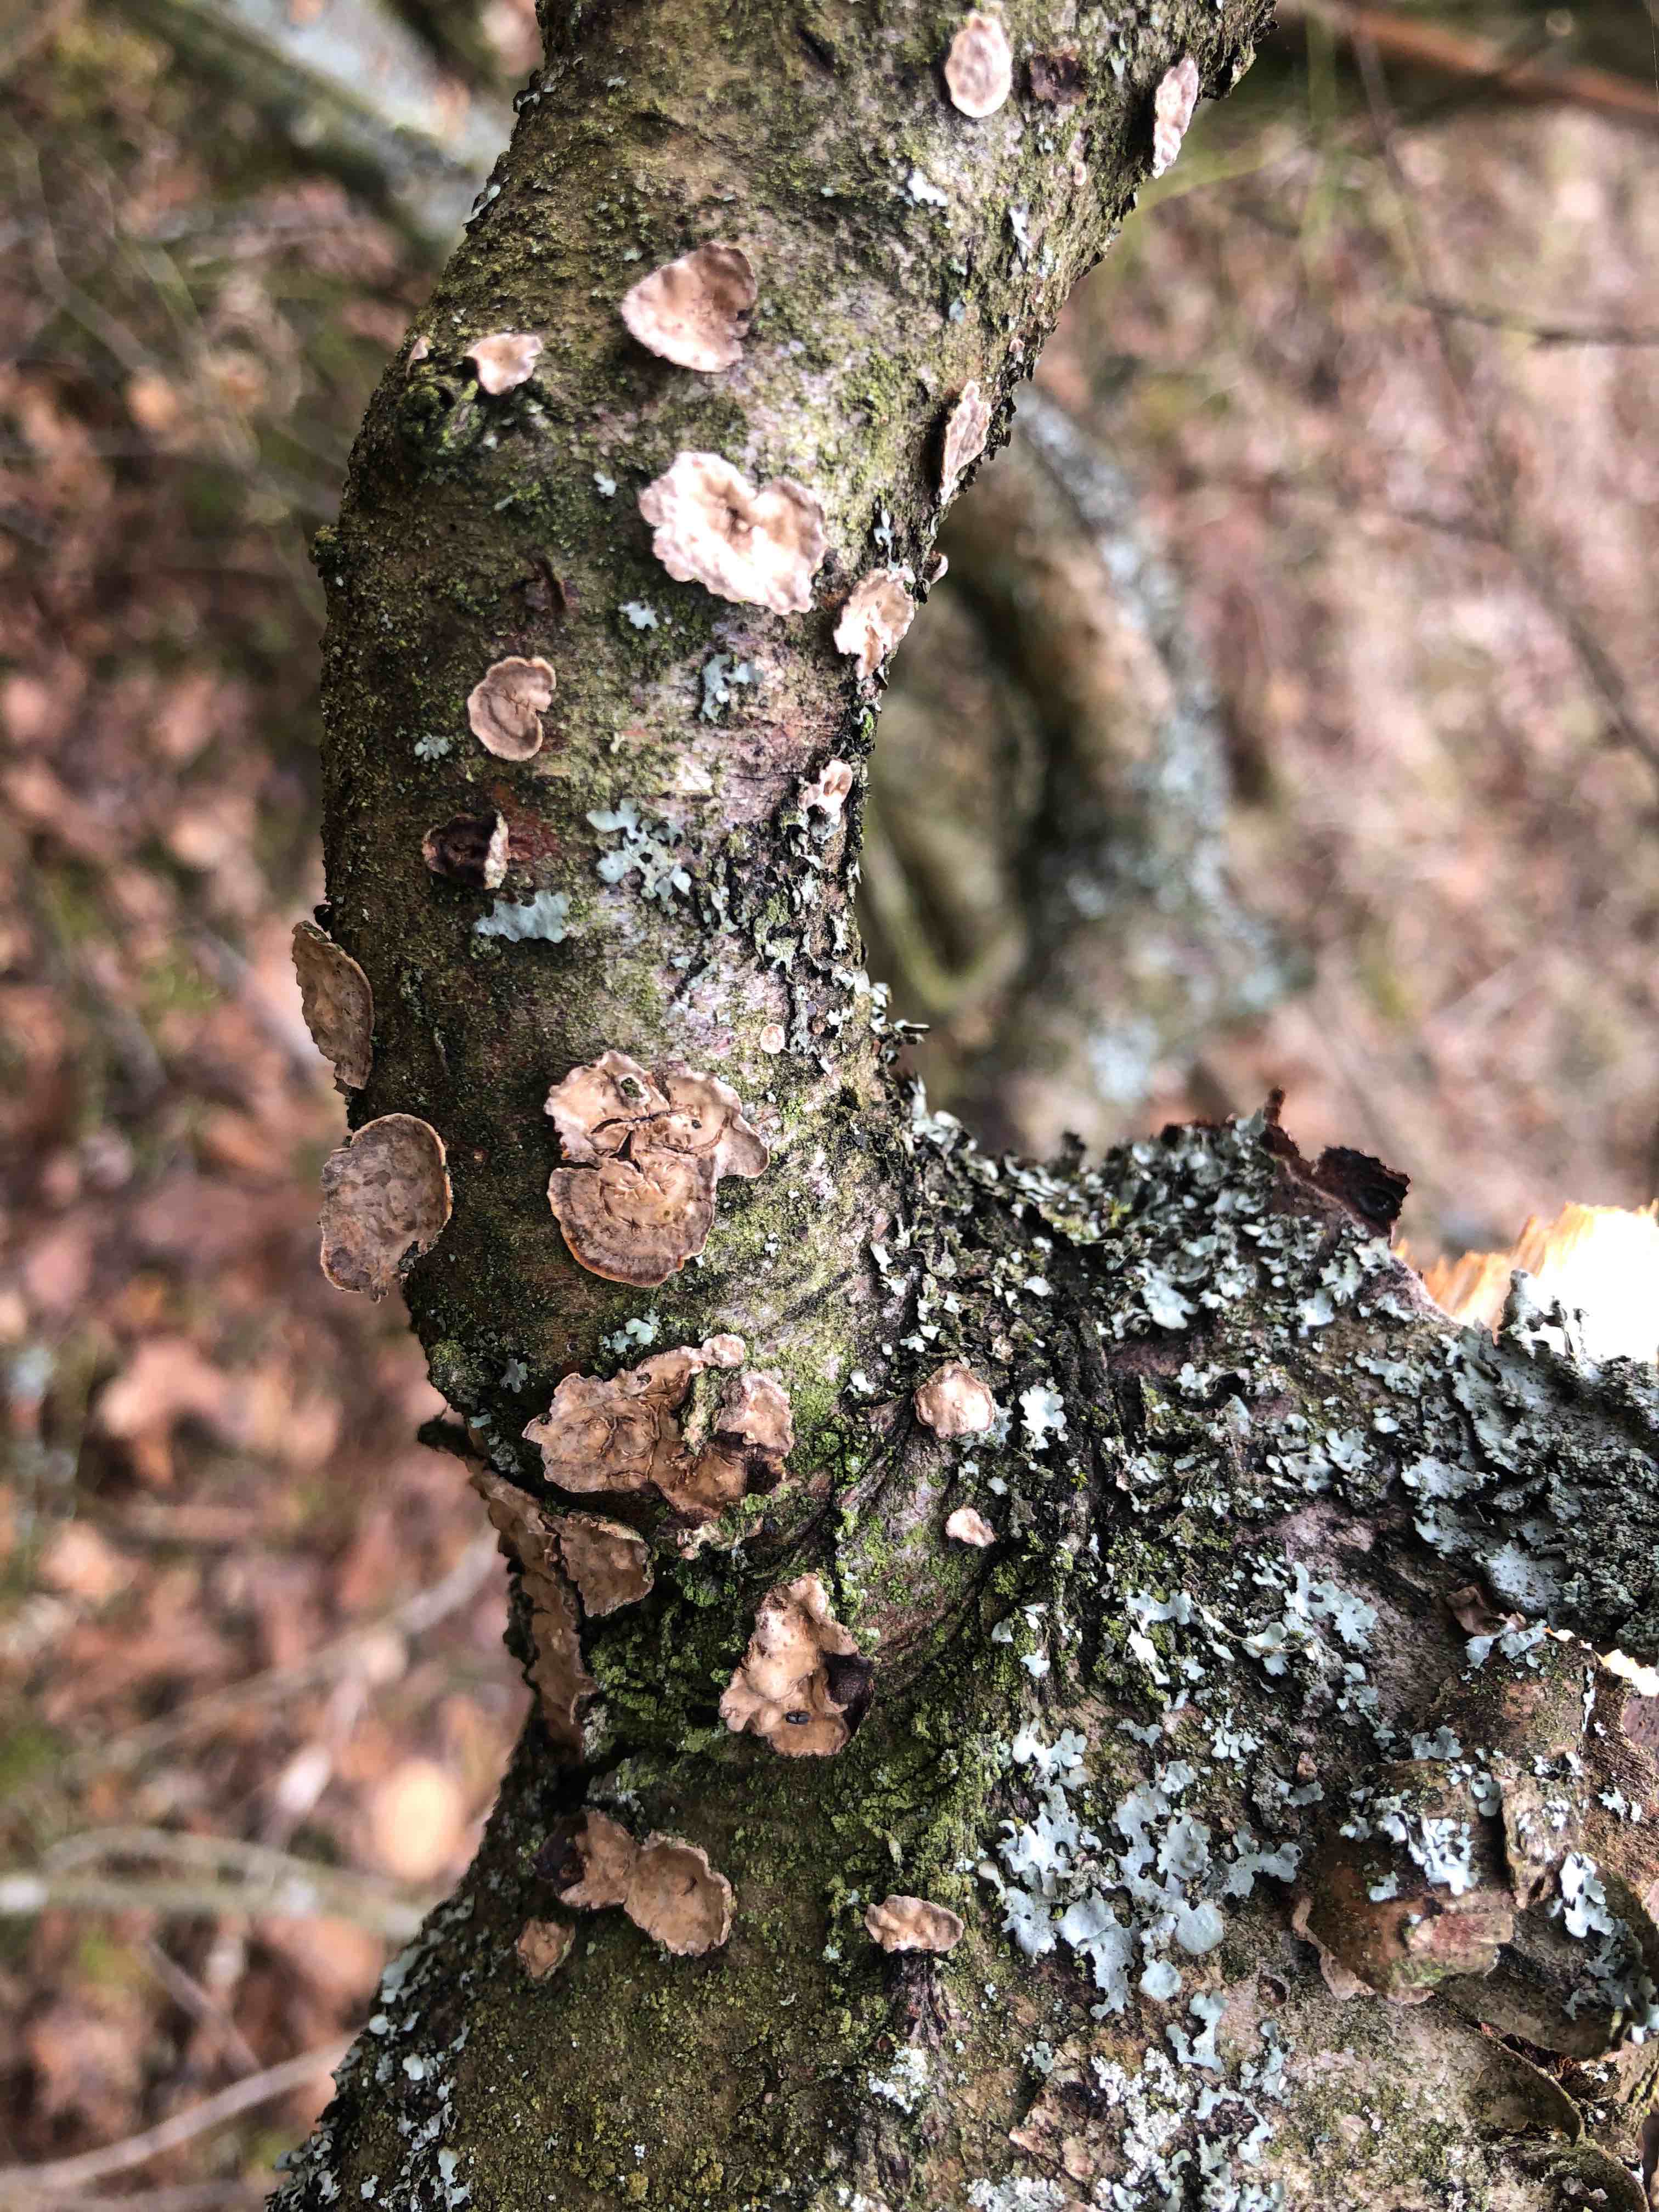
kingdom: Fungi
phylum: Basidiomycota
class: Agaricomycetes
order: Russulales
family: Stereaceae
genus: Stereum
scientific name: Stereum rugosum
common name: rynket lædersvamp
